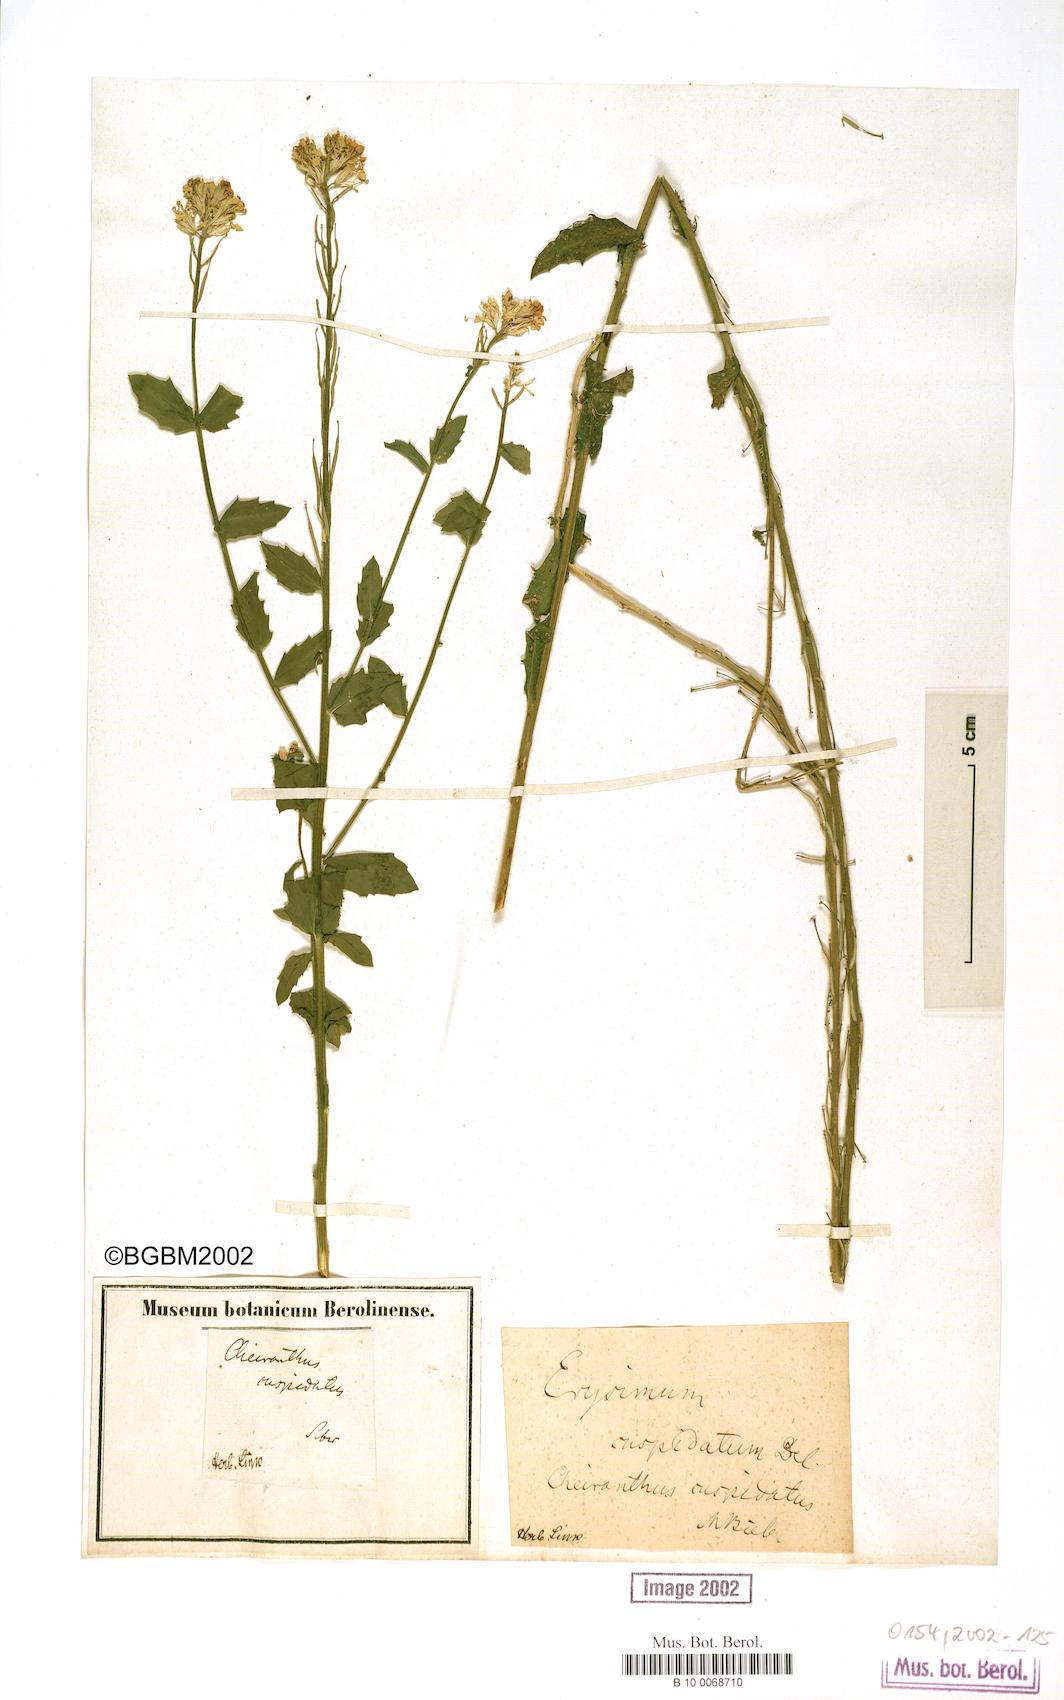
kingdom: Plantae
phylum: Tracheophyta
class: Magnoliopsida
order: Brassicales
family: Brassicaceae
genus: Erysimum
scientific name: Erysimum cuspidatum
